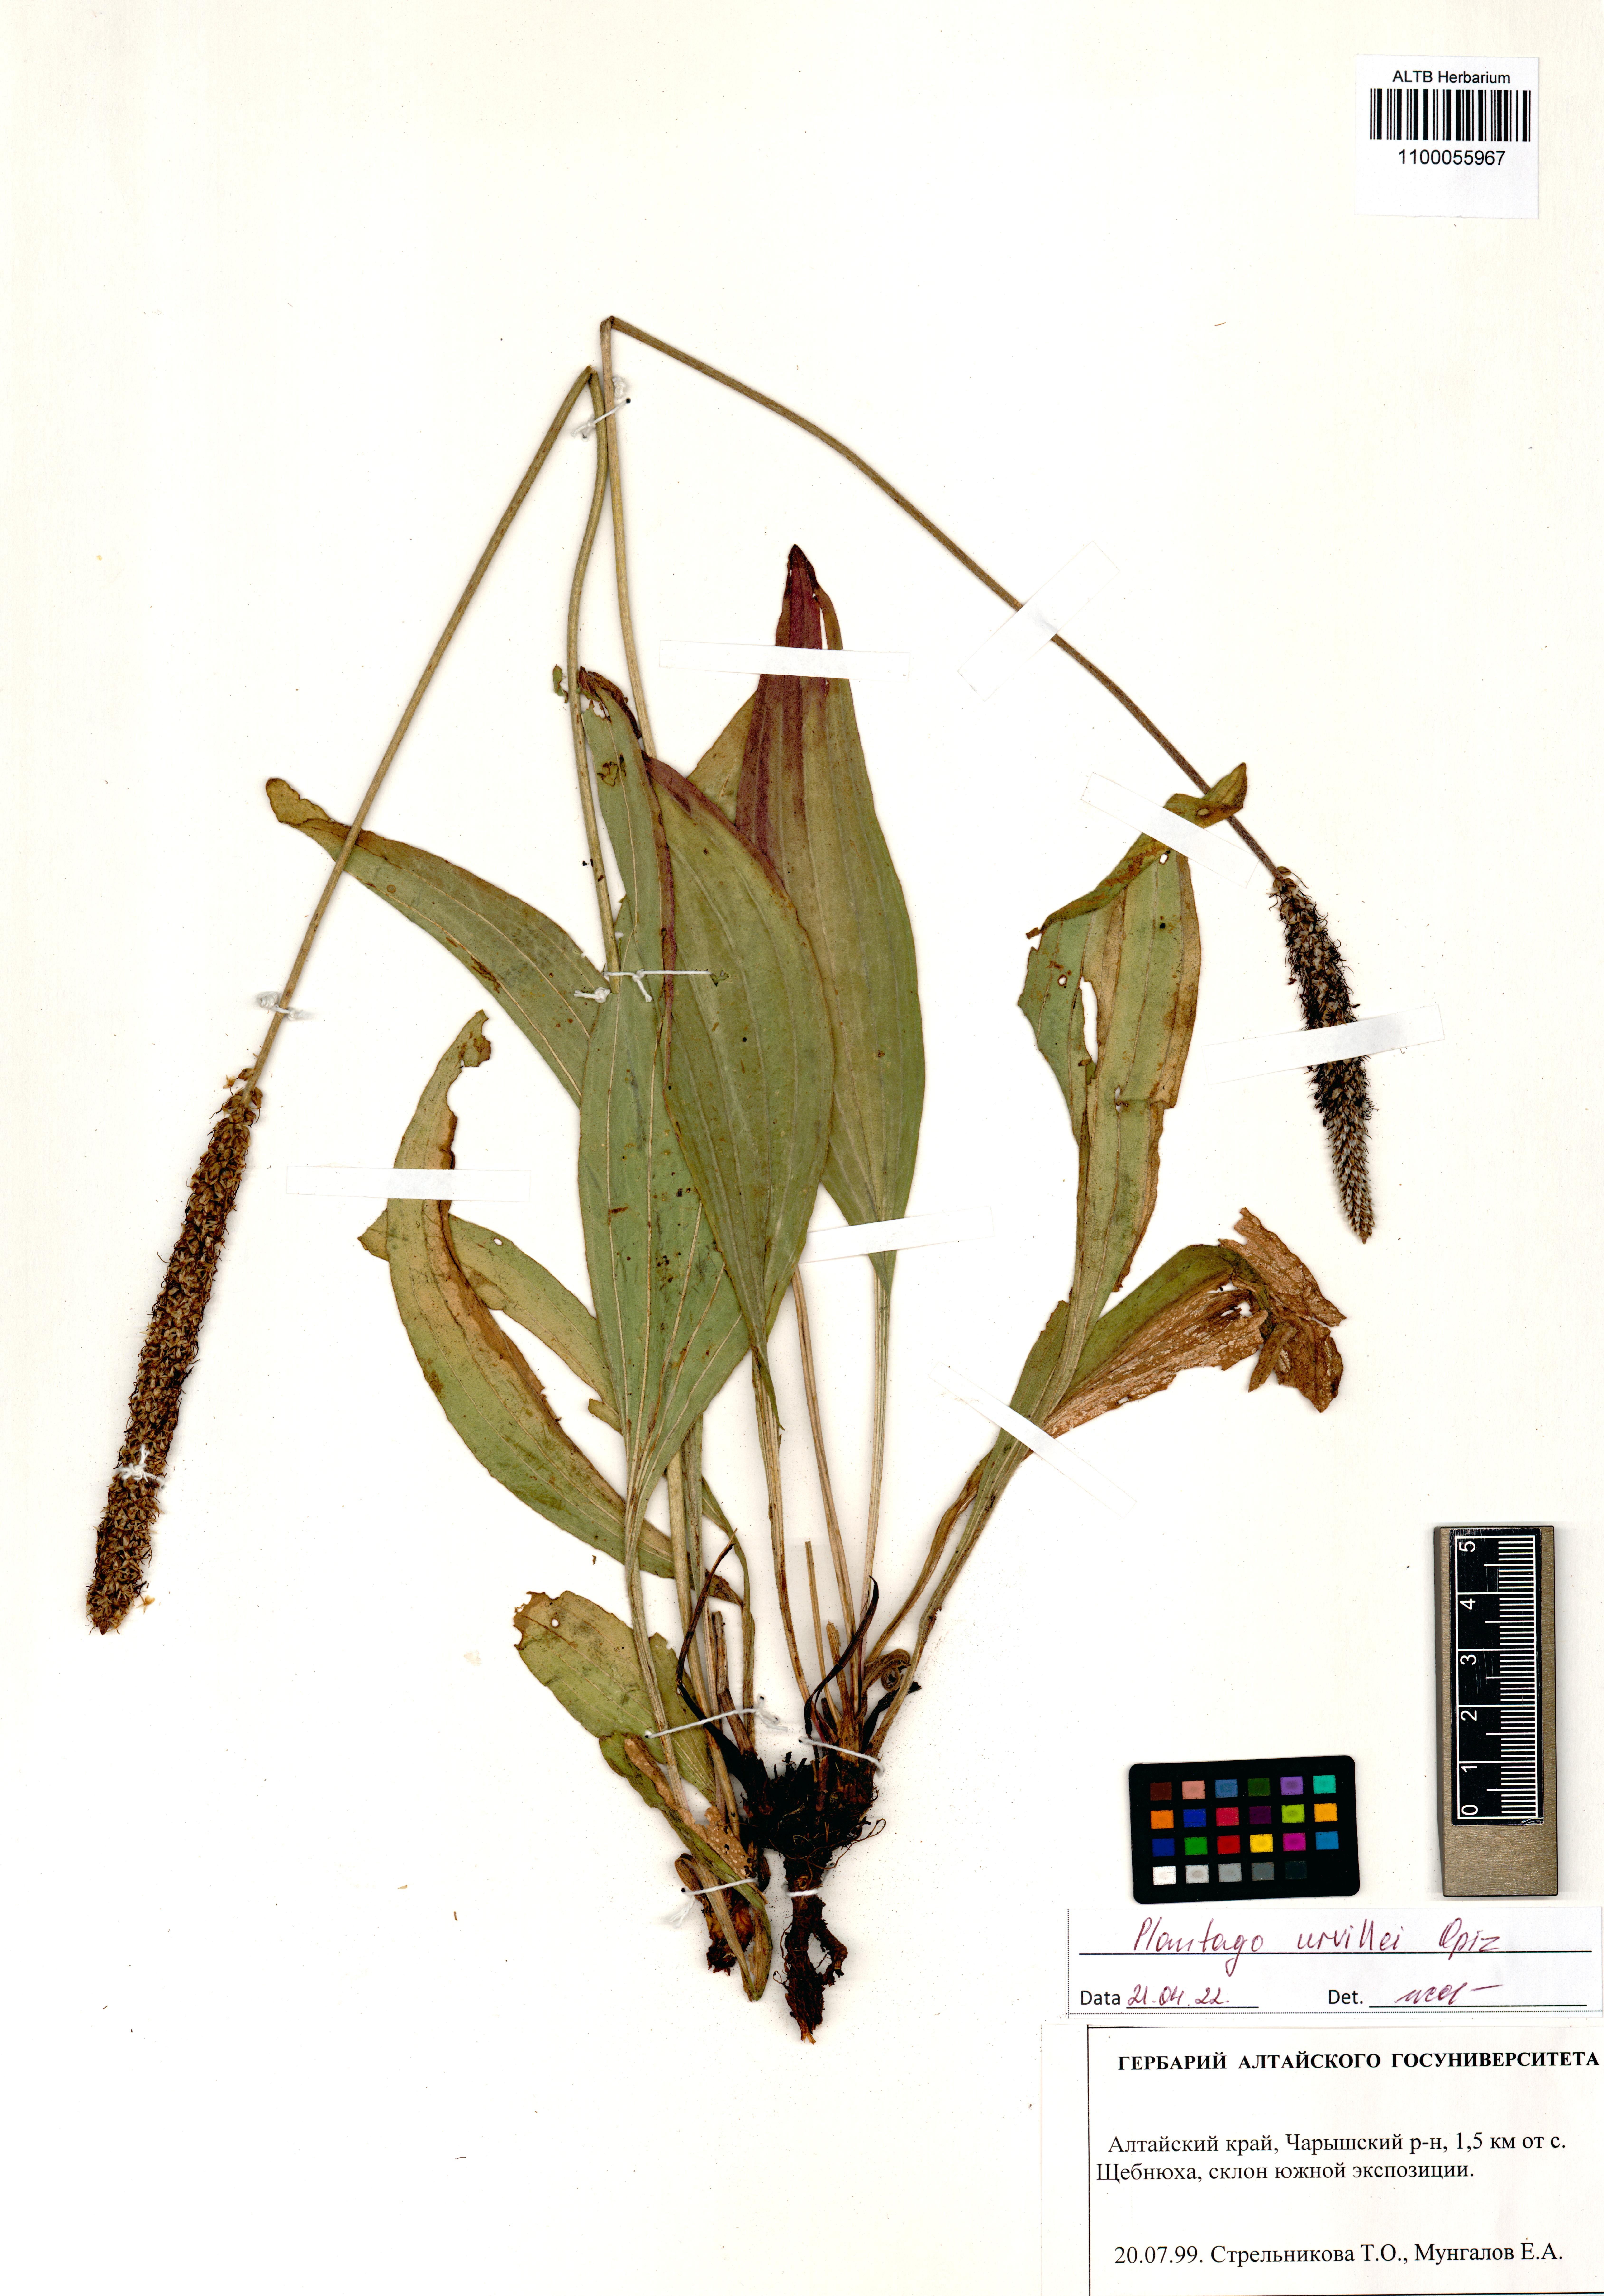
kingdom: Plantae
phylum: Tracheophyta
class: Magnoliopsida
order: Lamiales
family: Plantaginaceae
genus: Plantago
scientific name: Plantago urvillei
